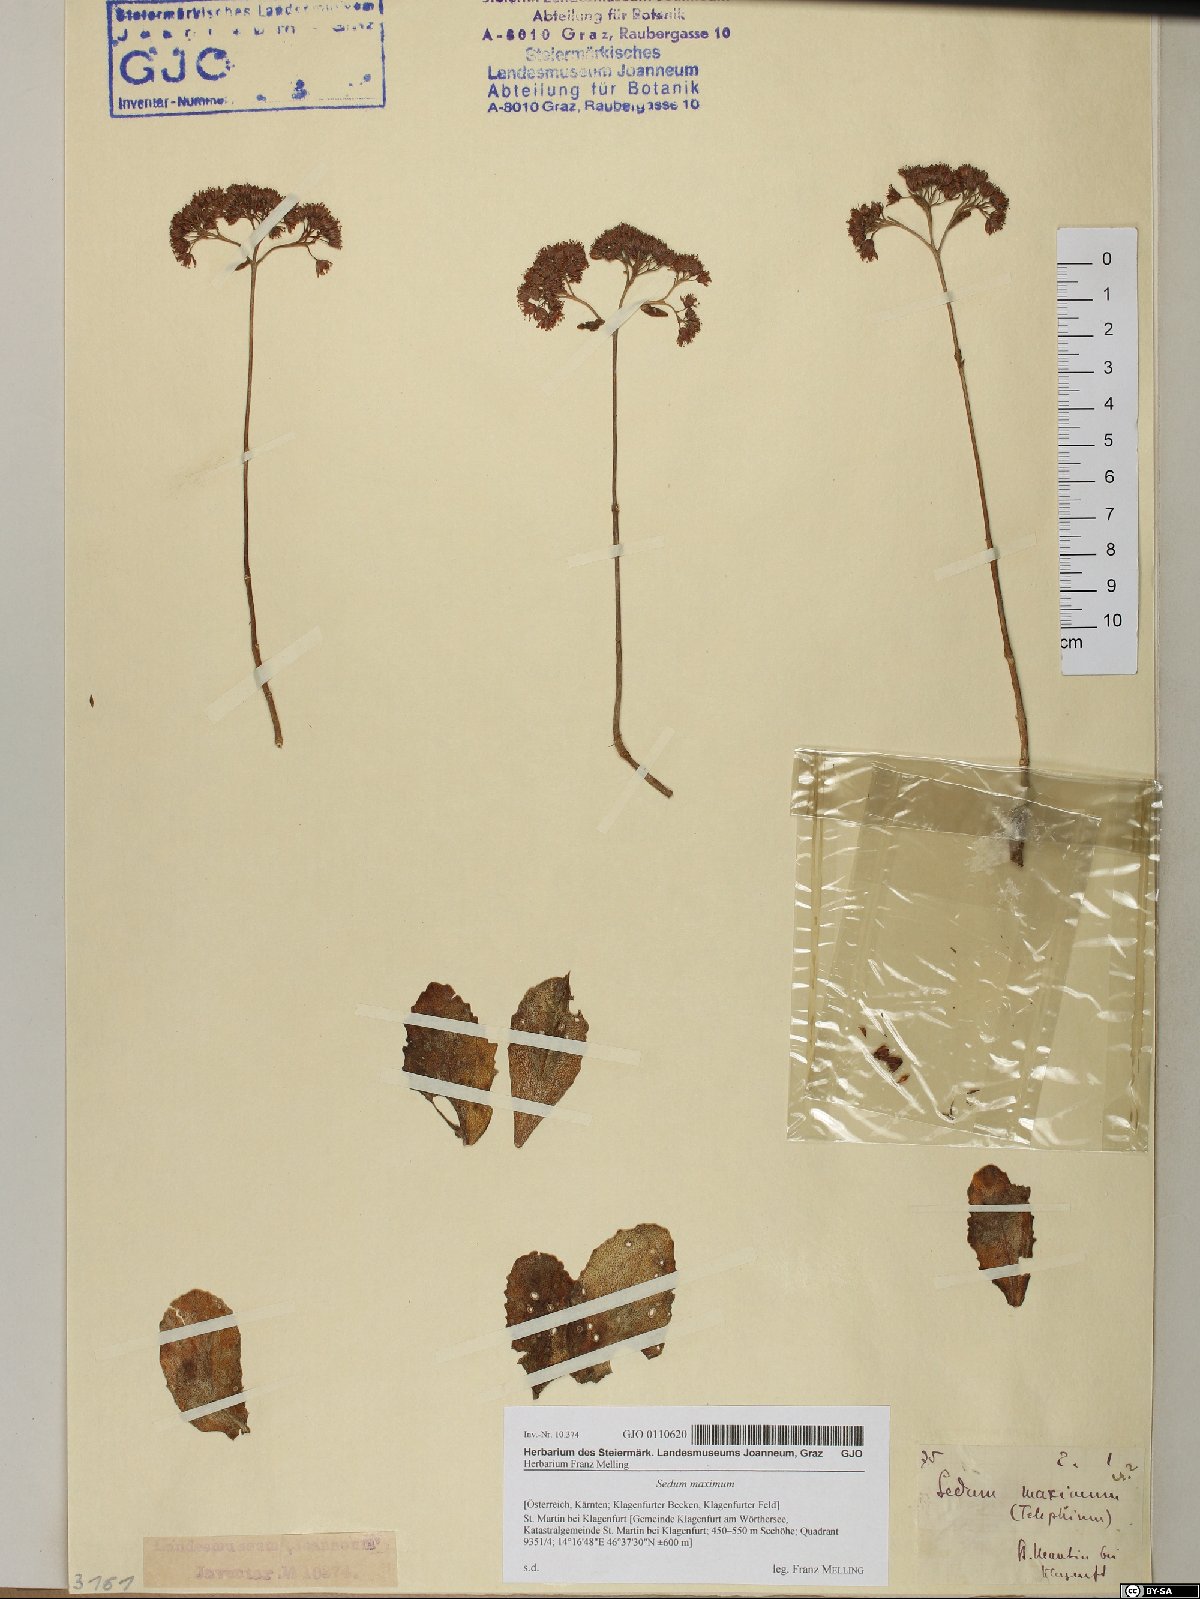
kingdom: Plantae
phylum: Tracheophyta
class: Magnoliopsida
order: Saxifragales
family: Crassulaceae
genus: Hylotelephium
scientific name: Hylotelephium maximum
